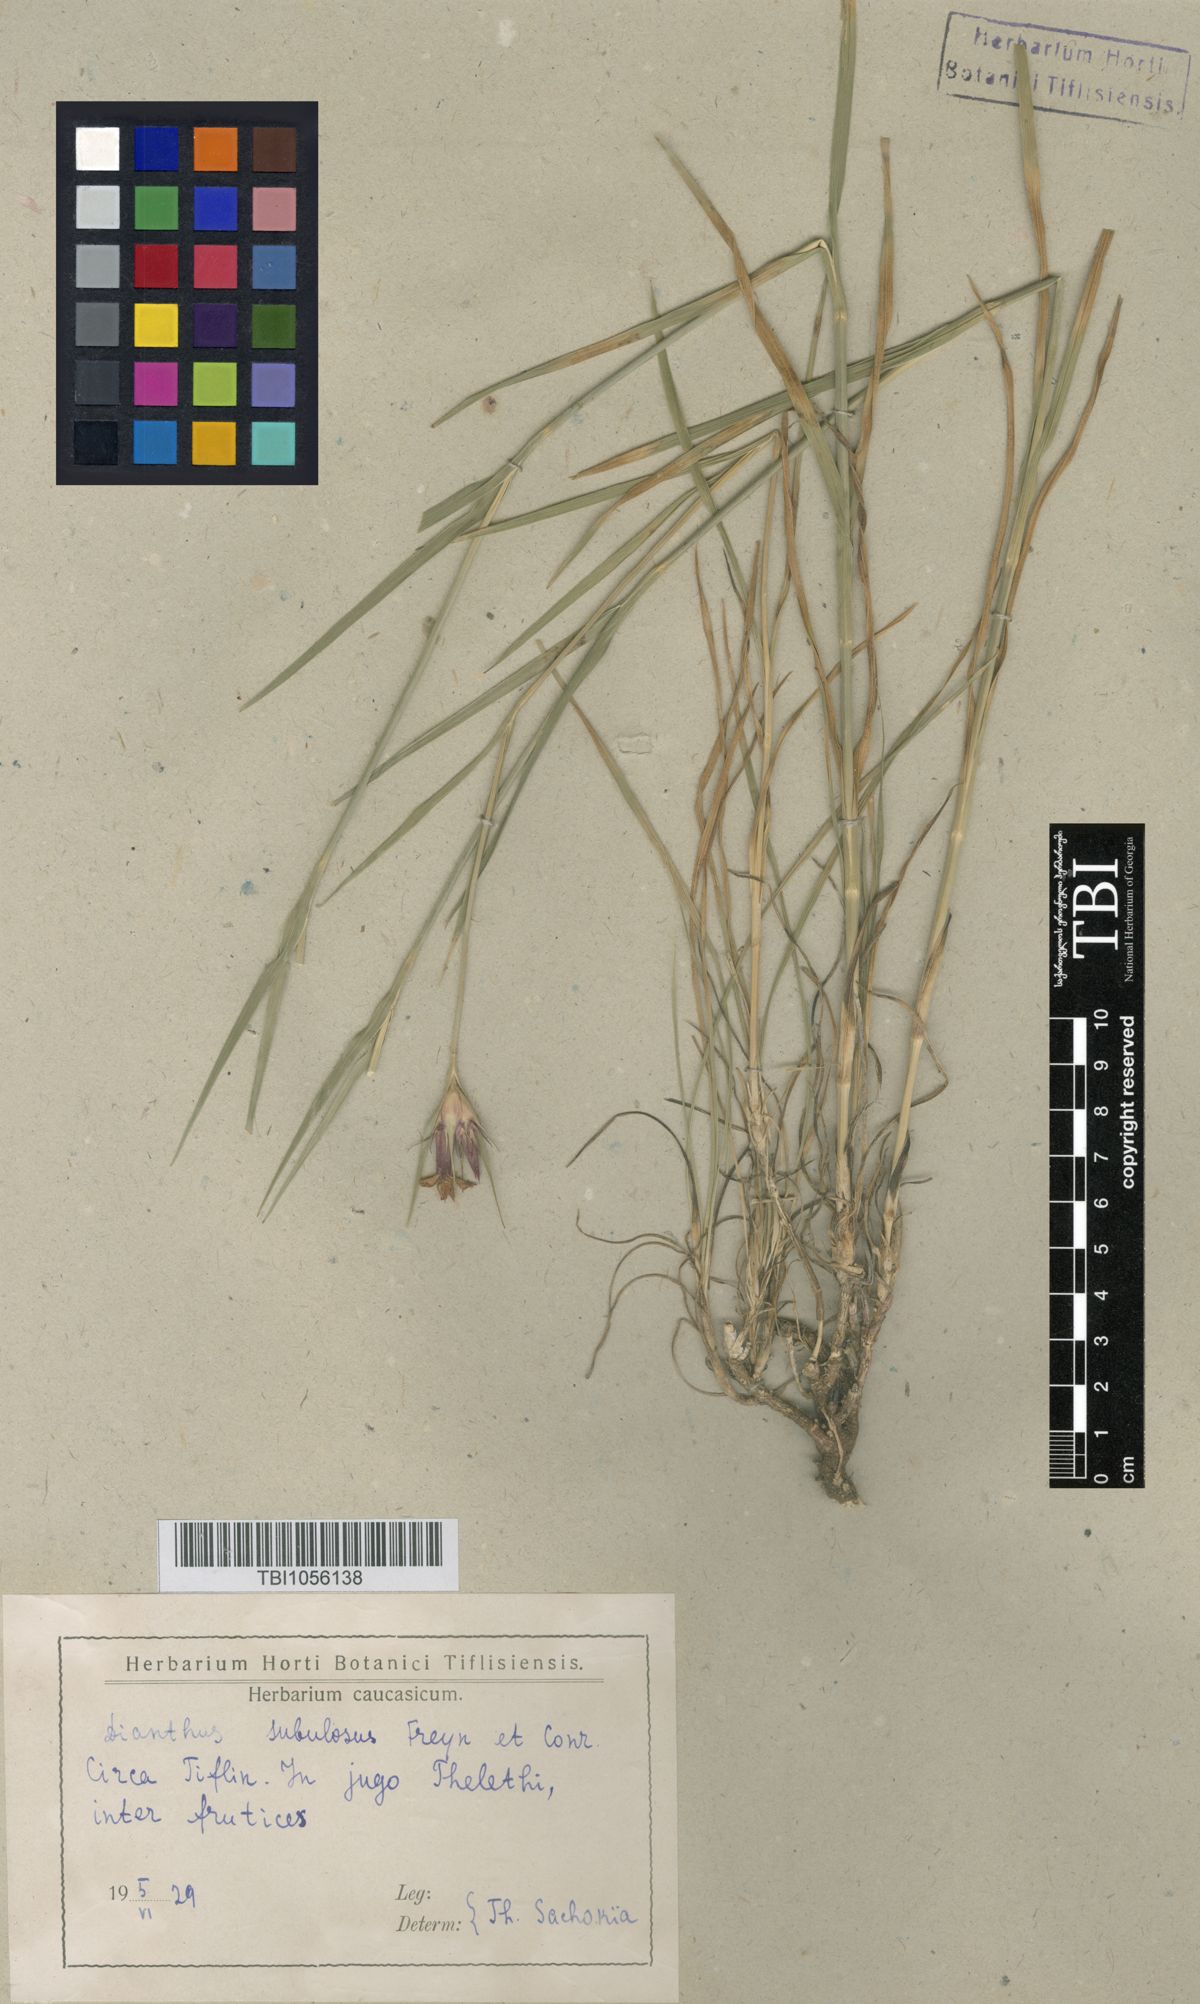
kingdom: Plantae
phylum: Tracheophyta
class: Magnoliopsida
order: Caryophyllales
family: Caryophyllaceae
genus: Dianthus
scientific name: Dianthus subulosus
